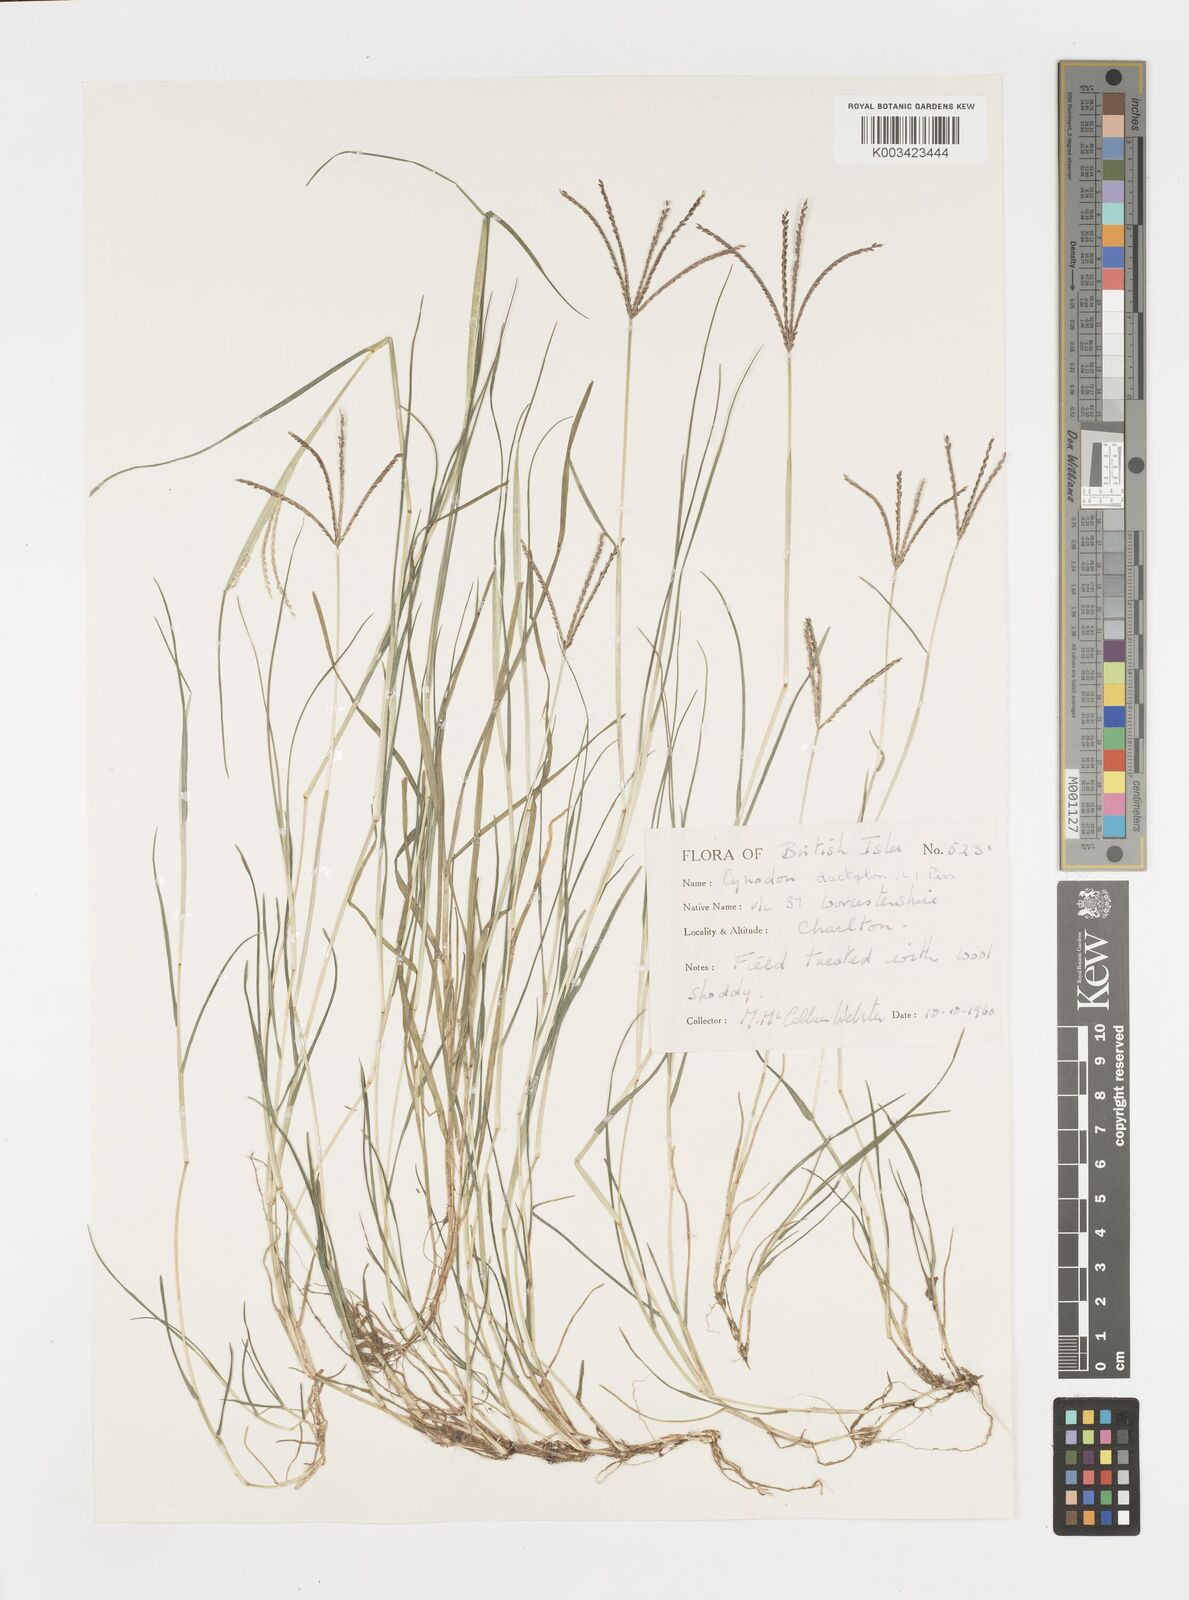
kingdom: Plantae
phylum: Tracheophyta
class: Liliopsida
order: Poales
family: Poaceae
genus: Cynodon
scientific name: Cynodon dactylon
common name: Bermuda grass
